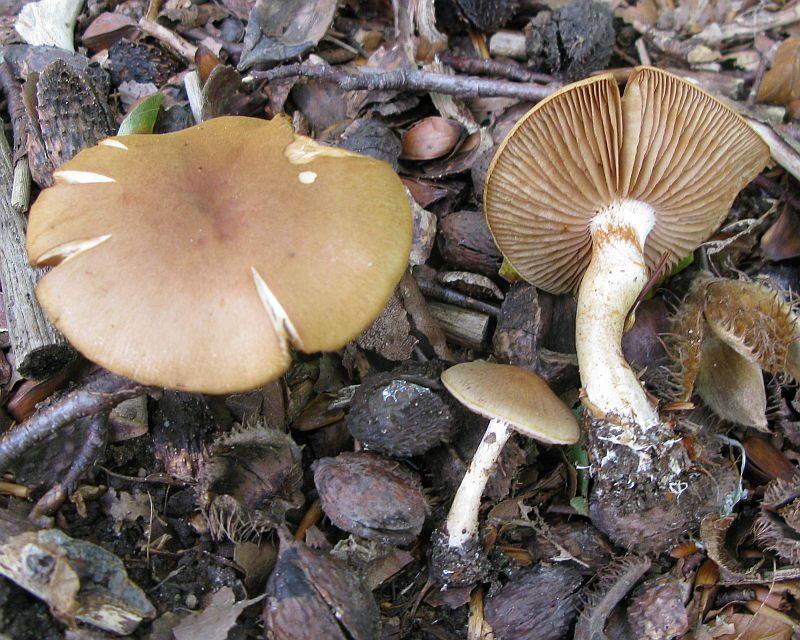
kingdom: Fungi
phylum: Basidiomycota
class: Agaricomycetes
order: Agaricales
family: Cortinariaceae
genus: Cortinarius
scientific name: Cortinarius anomalus
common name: Variable webcap
